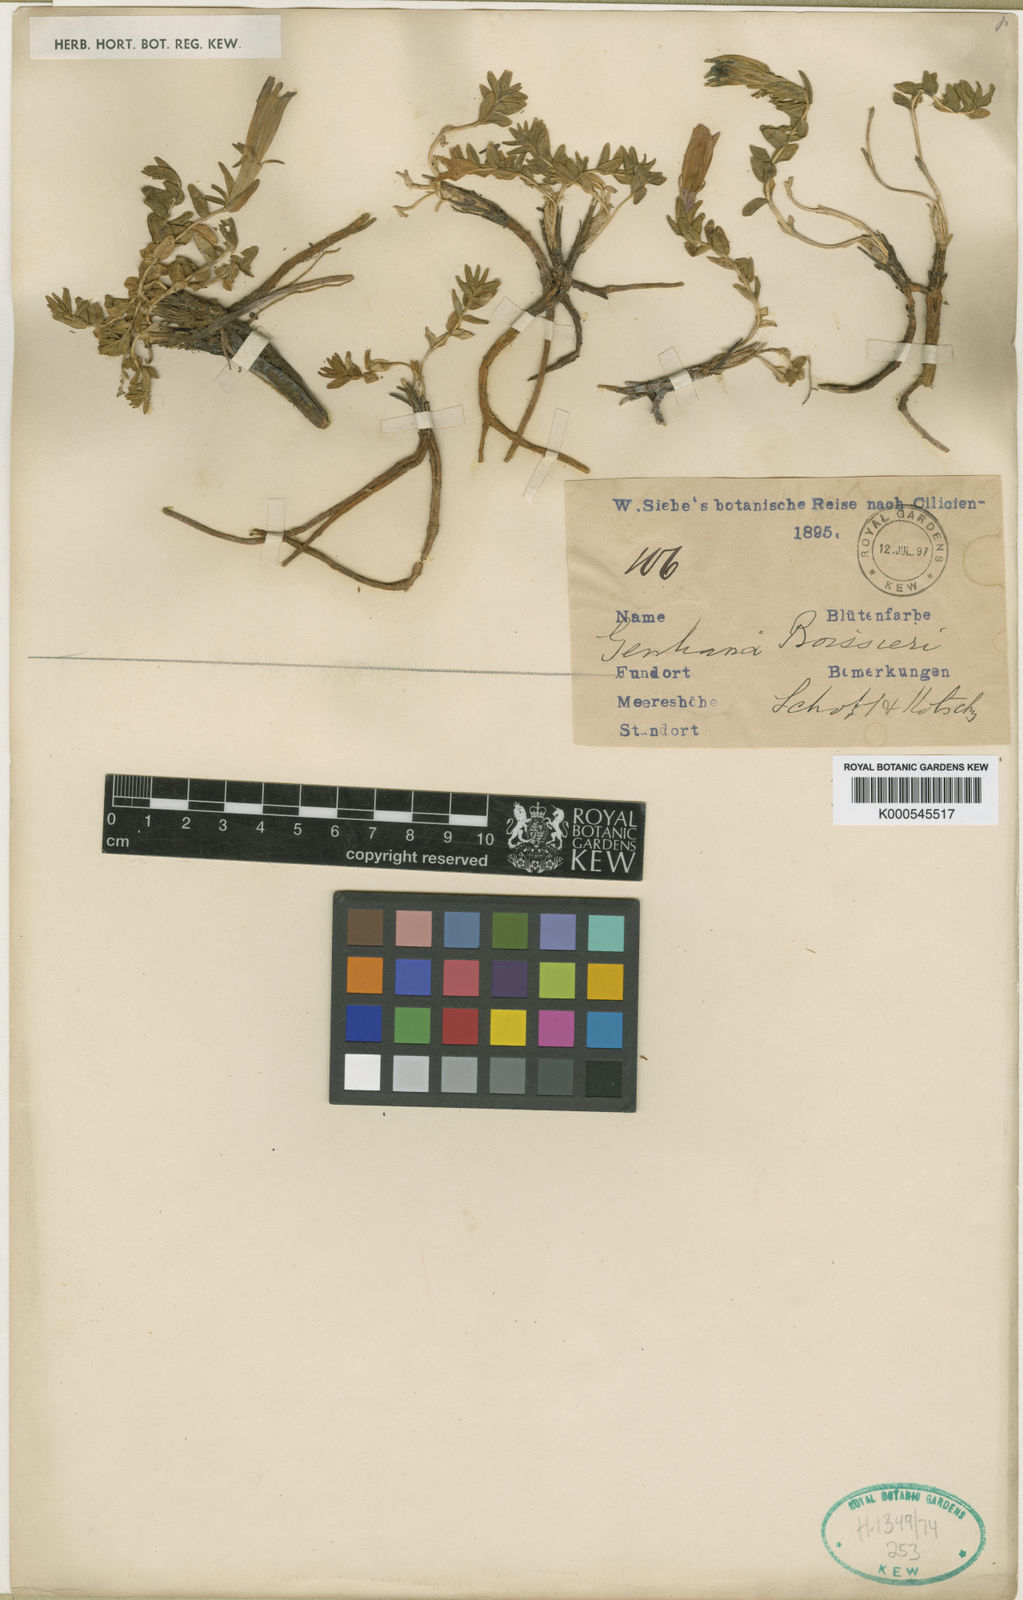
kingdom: Plantae
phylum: Tracheophyta
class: Magnoliopsida
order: Gentianales
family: Gentianaceae
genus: Gentiana
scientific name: Gentiana boissieri
